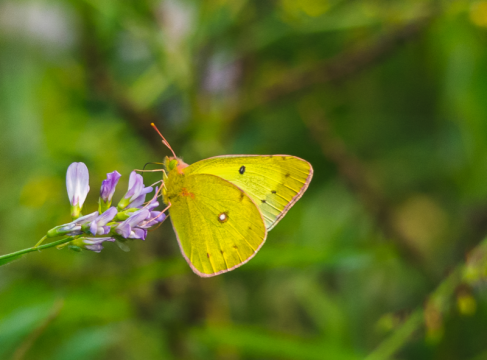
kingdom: Animalia
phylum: Arthropoda
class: Insecta
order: Lepidoptera
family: Pieridae
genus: Colias
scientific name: Colias philodice
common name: Clouded Sulphur
